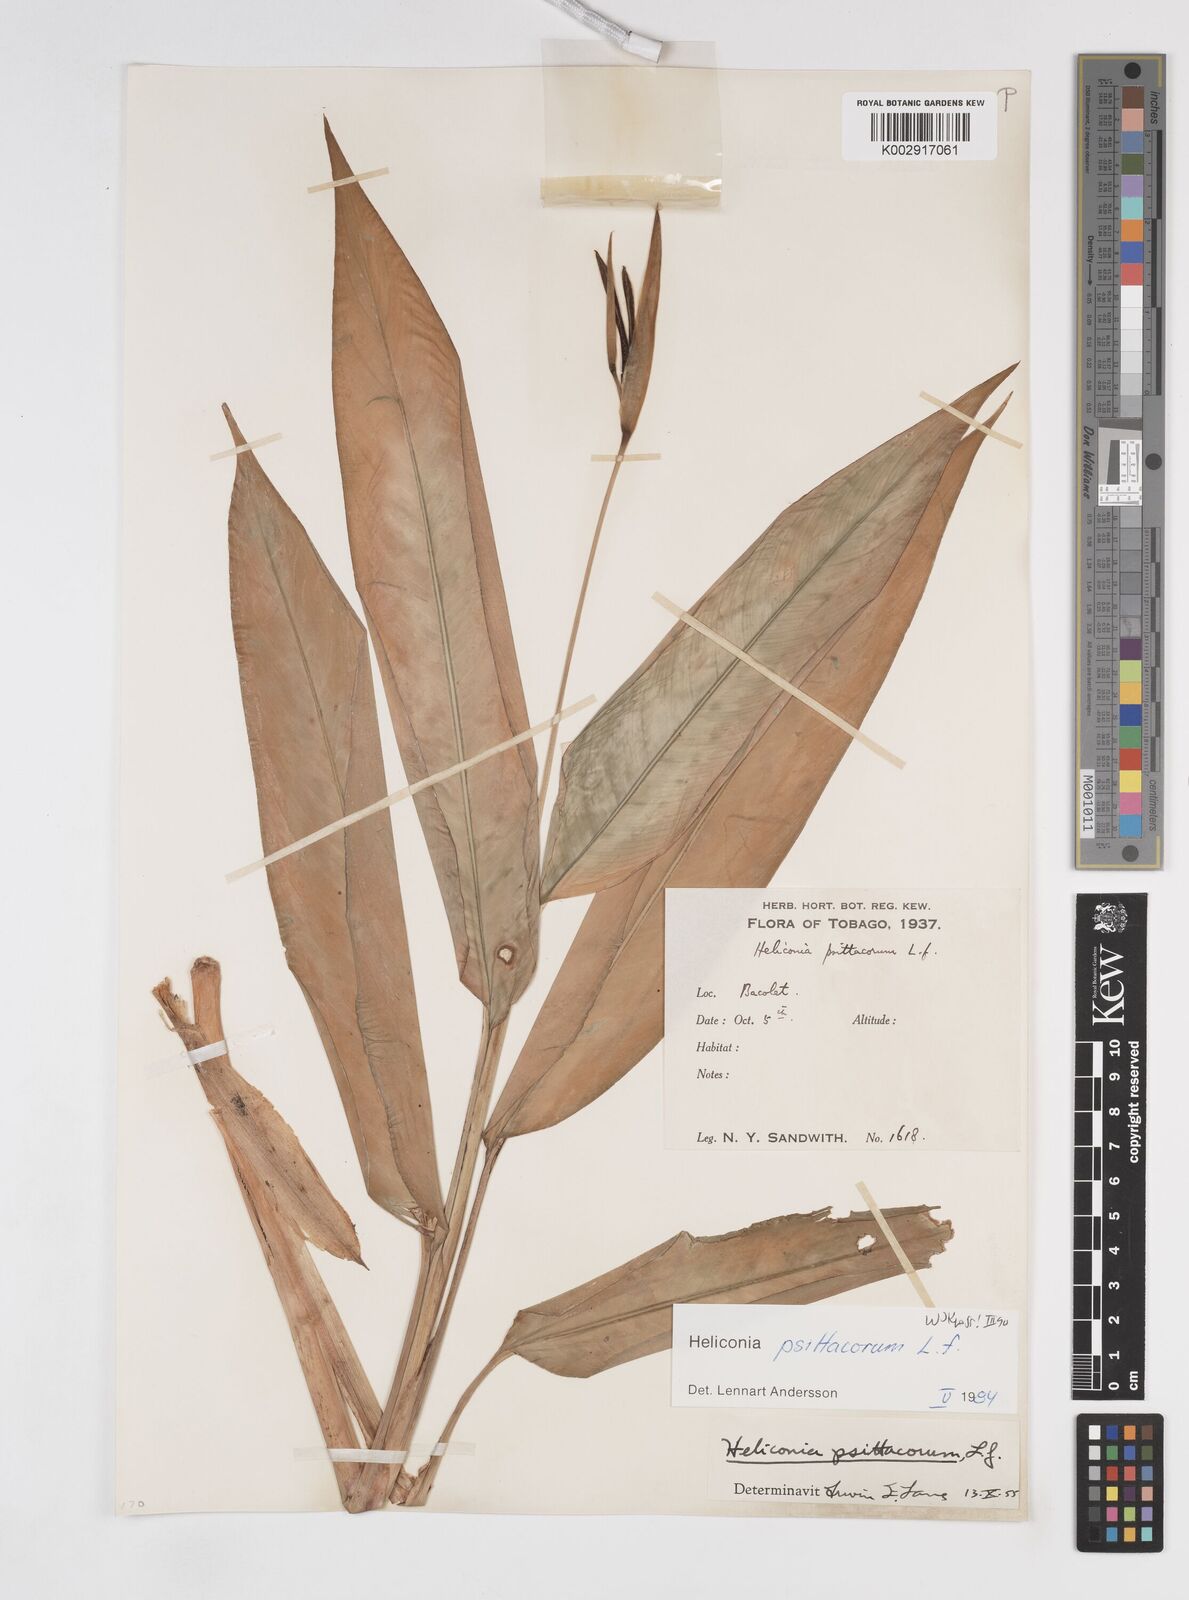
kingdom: Plantae
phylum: Tracheophyta
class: Liliopsida
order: Zingiberales
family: Heliconiaceae
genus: Heliconia
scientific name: Heliconia psittacorum
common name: Parrot's-flower
